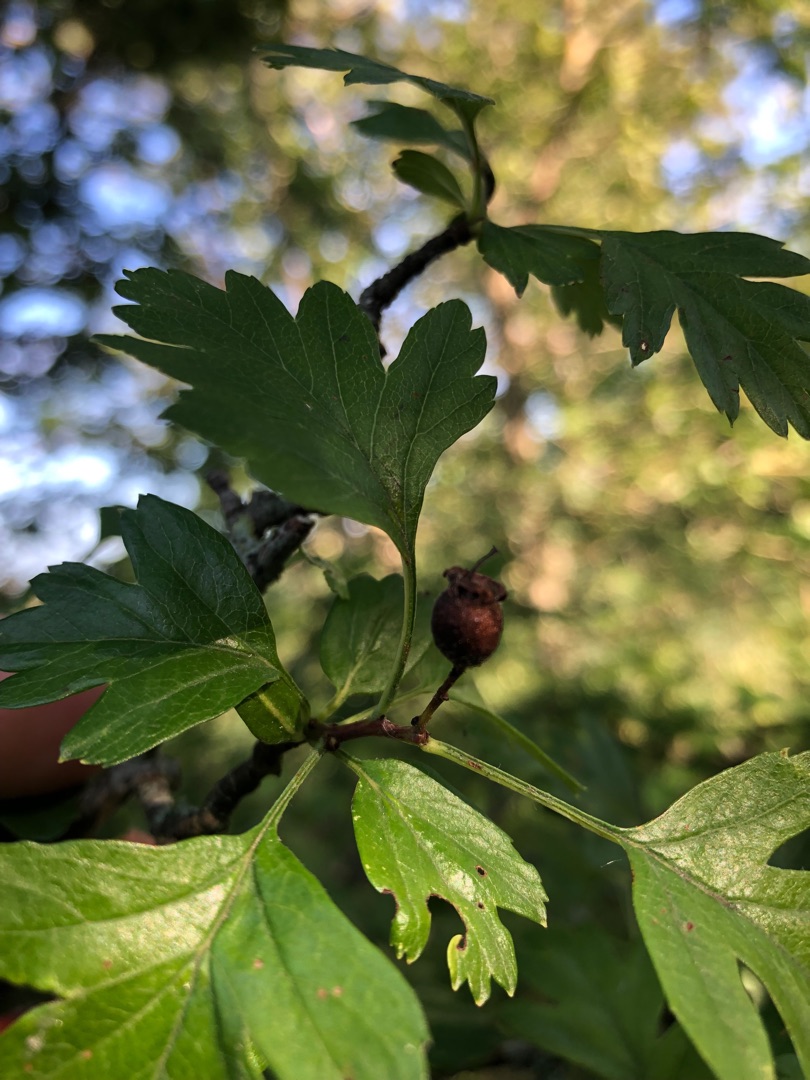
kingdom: Plantae
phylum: Tracheophyta
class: Magnoliopsida
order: Rosales
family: Rosaceae
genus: Crataegus
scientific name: Crataegus monogyna
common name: Engriflet hvidtjørn
